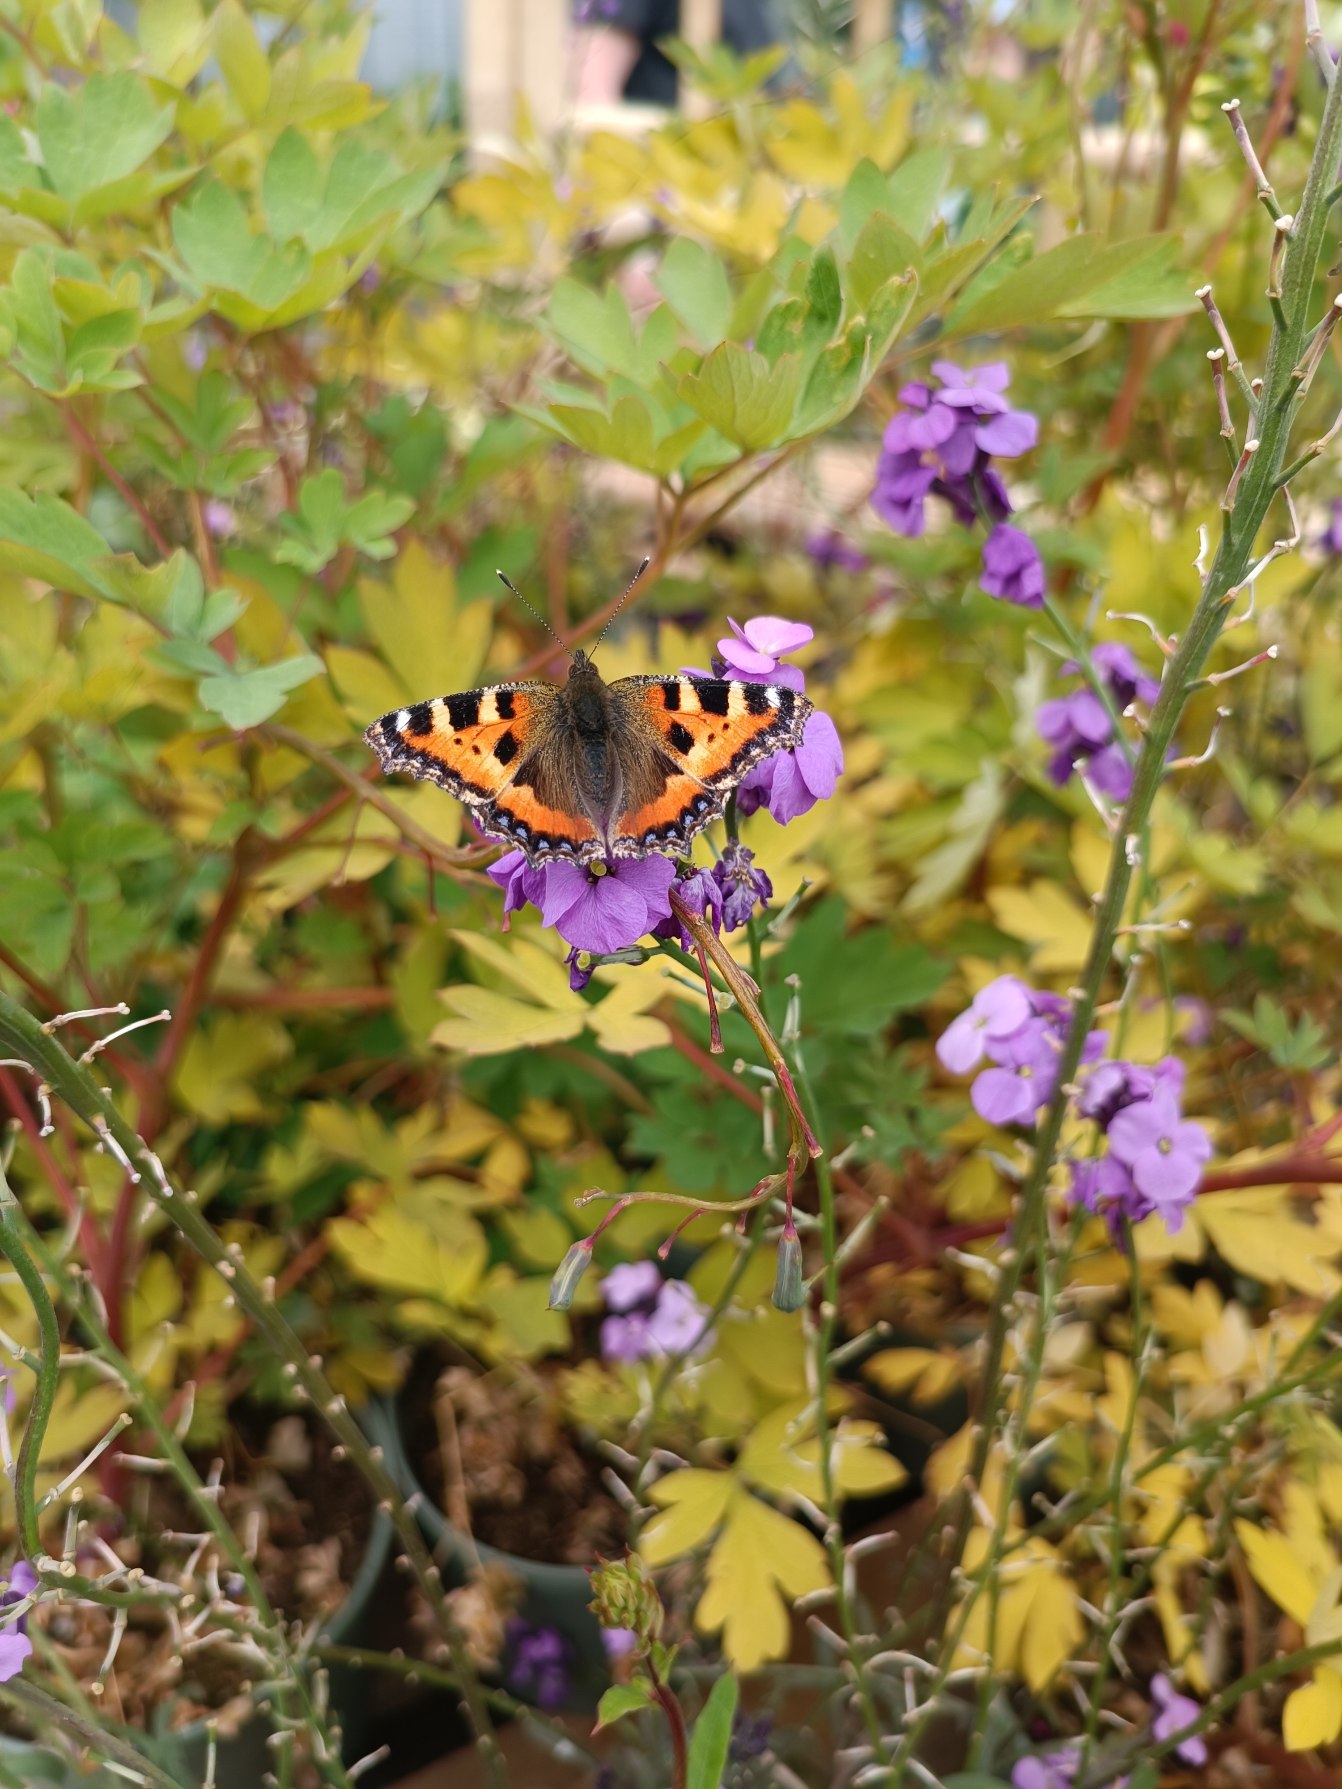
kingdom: Animalia
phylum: Arthropoda
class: Insecta
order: Lepidoptera
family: Nymphalidae
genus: Aglais
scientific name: Aglais urticae
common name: Nældens takvinge
